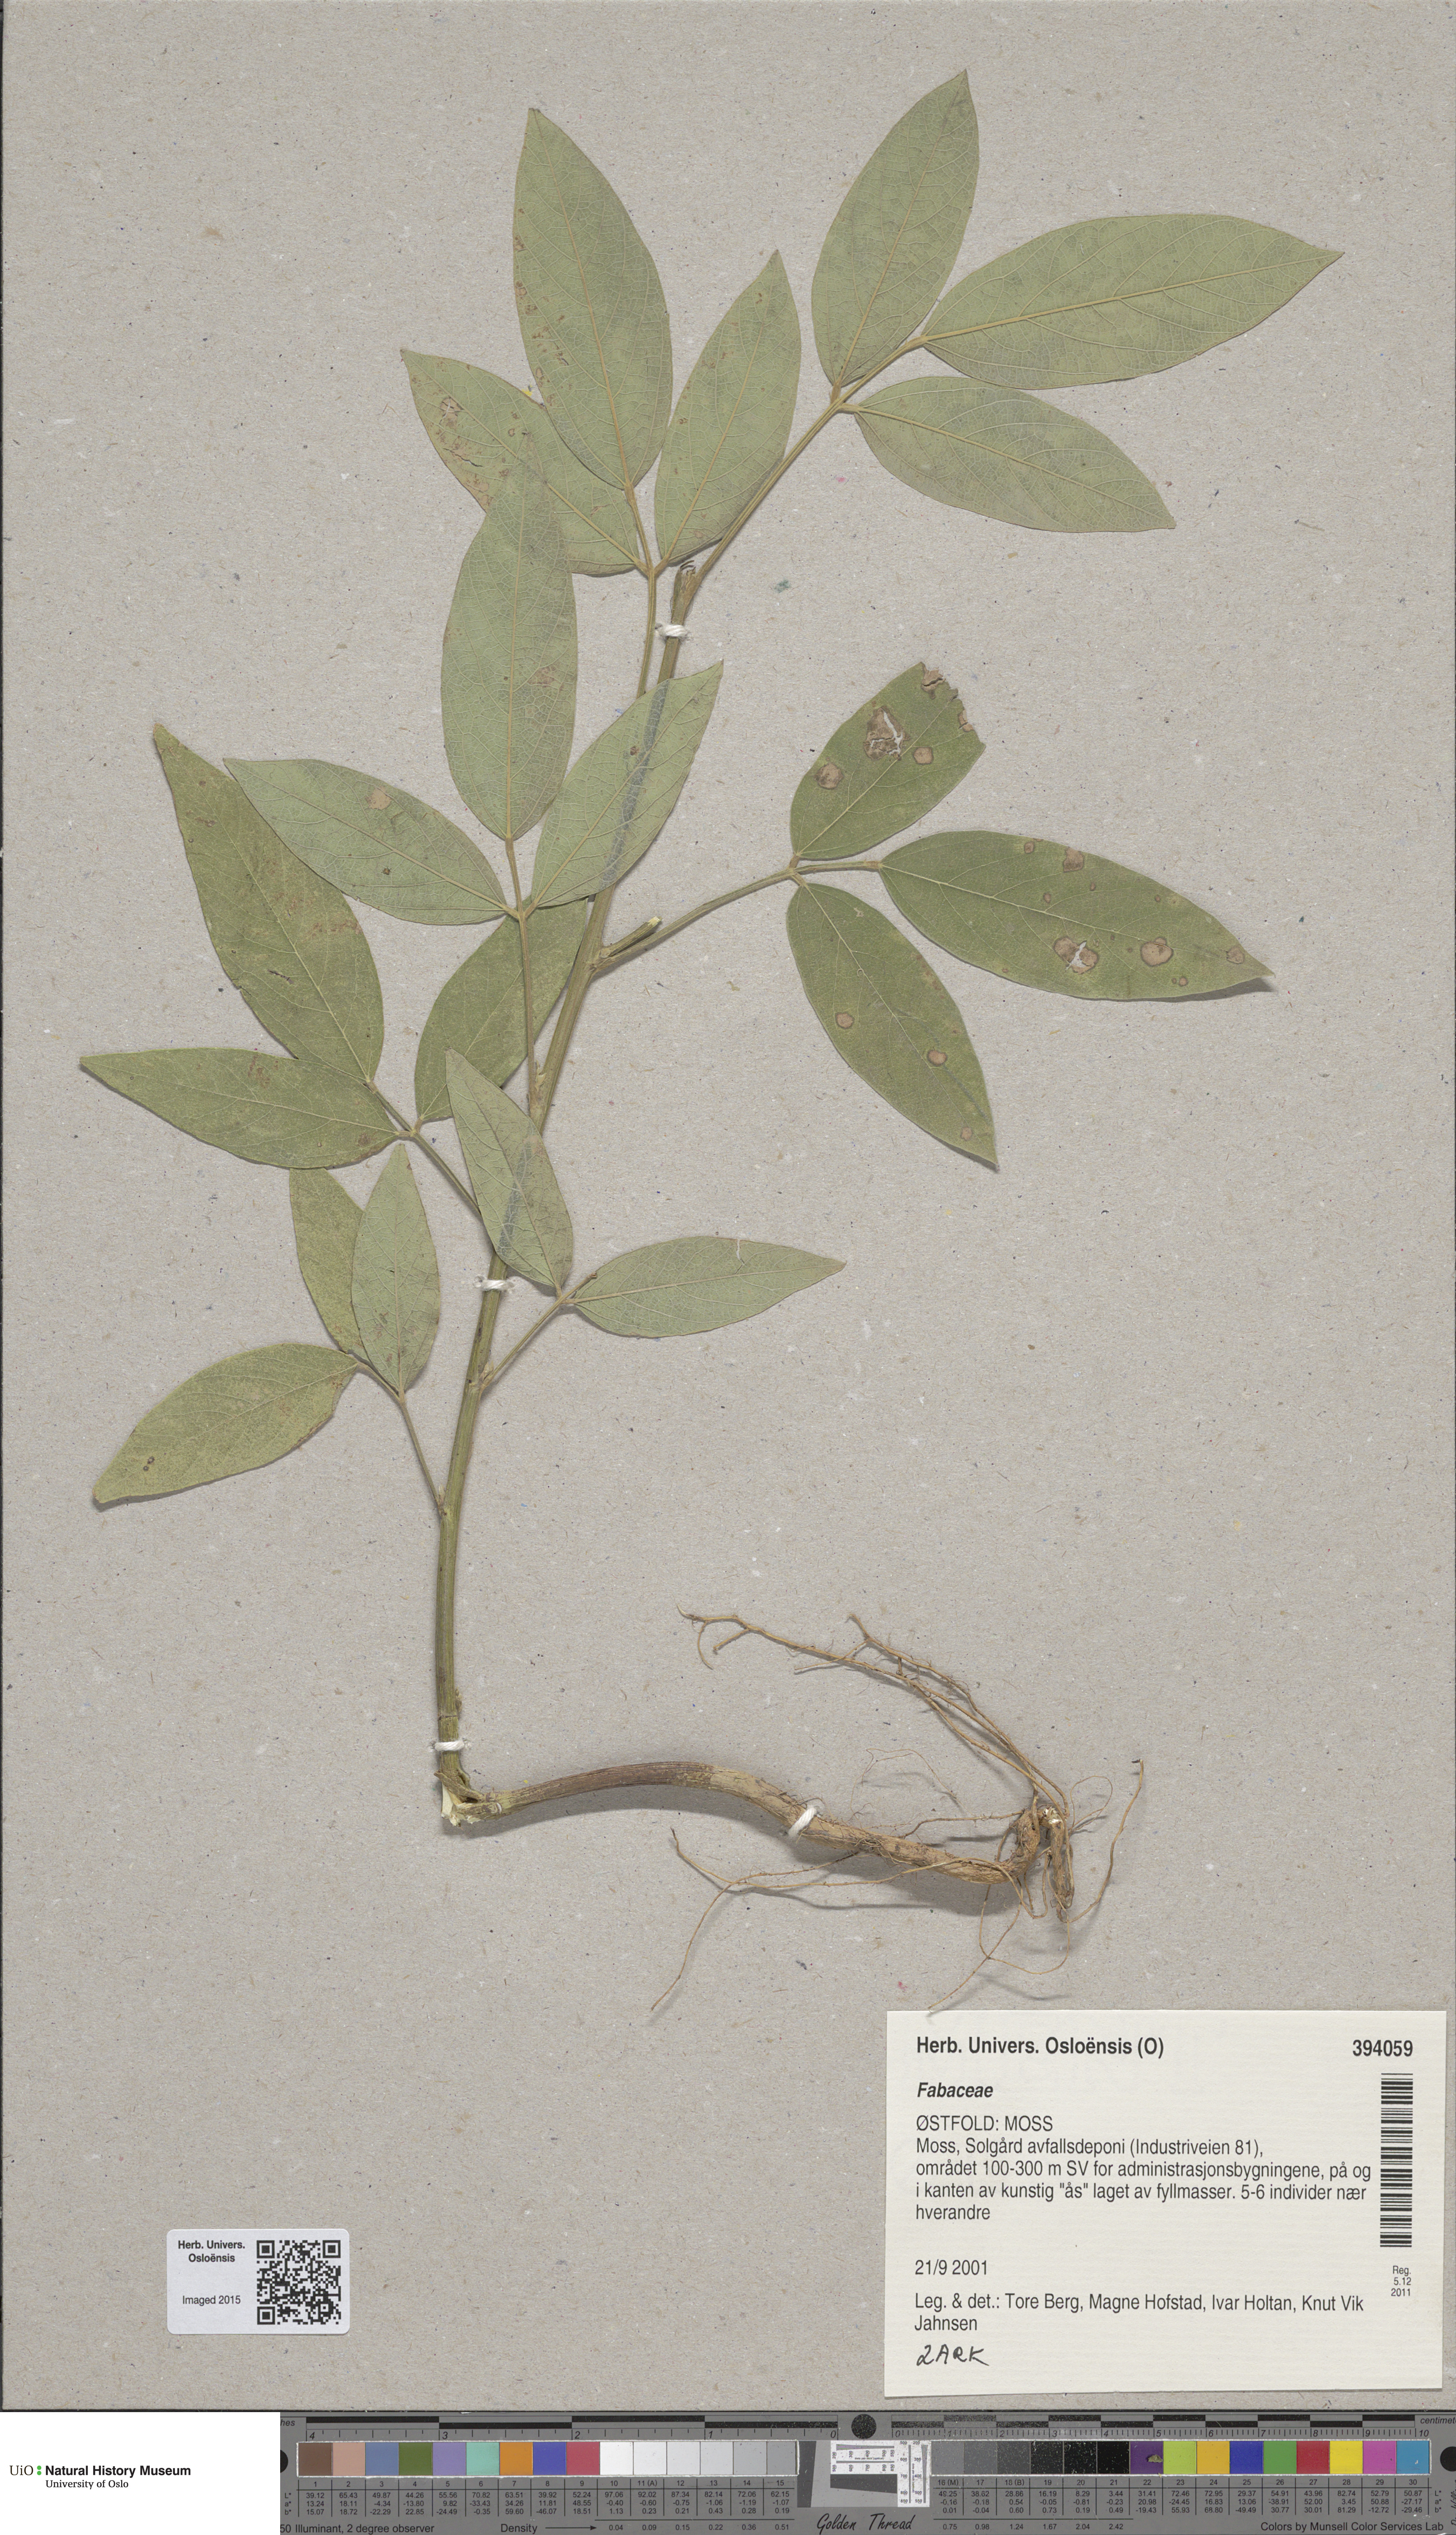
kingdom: Plantae
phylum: Tracheophyta
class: Magnoliopsida
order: Fabales
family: Fabaceae
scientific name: Fabaceae
